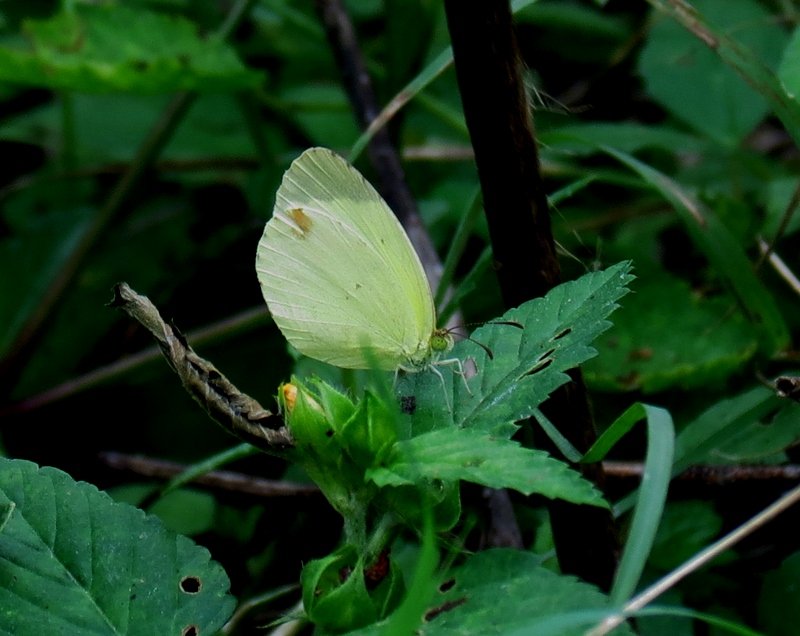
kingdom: Animalia
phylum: Arthropoda
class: Insecta
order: Lepidoptera
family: Pieridae
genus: Pyrisitia
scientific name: Pyrisitia nise
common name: Mimosa Yellow
